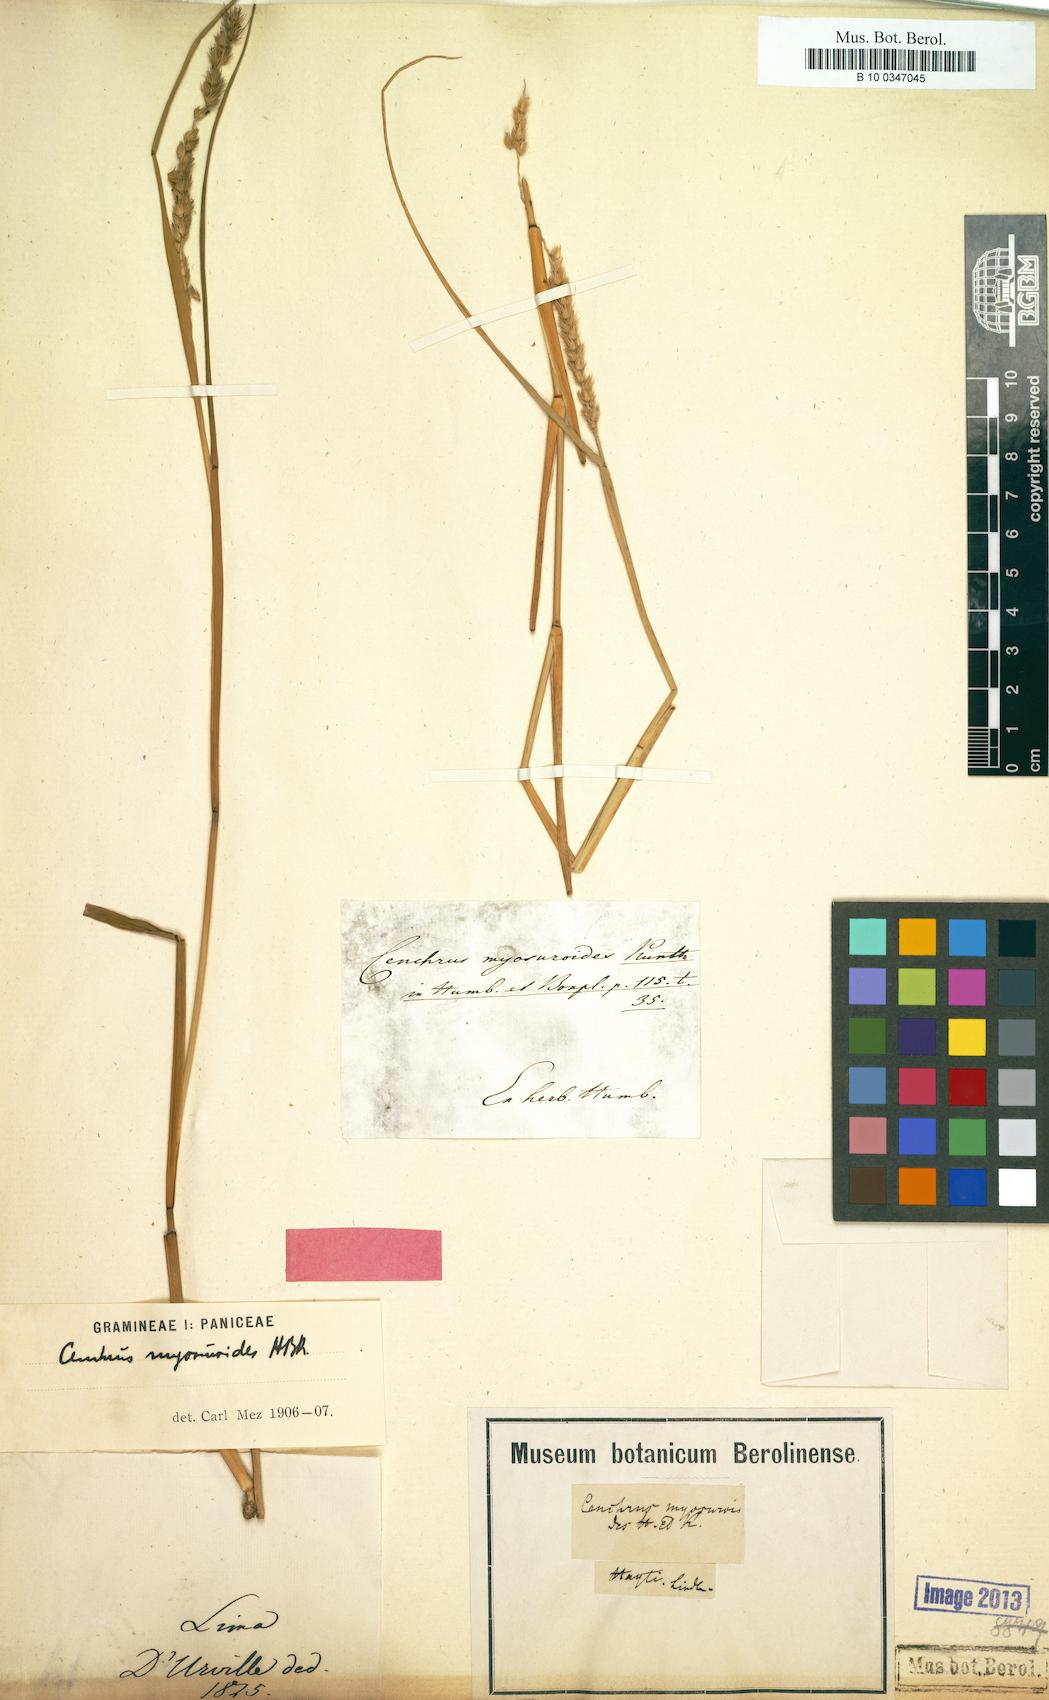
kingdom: Plantae
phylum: Tracheophyta
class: Liliopsida
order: Poales
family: Poaceae
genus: Cenchrus
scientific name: Cenchrus myosuroides
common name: Big sandbur
